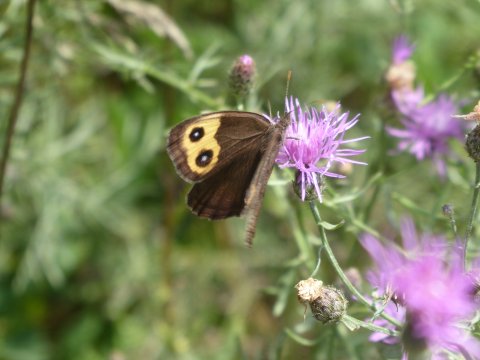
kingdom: Animalia
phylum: Arthropoda
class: Insecta
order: Lepidoptera
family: Nymphalidae
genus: Cercyonis
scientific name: Cercyonis pegala
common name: Common Wood-Nymph
